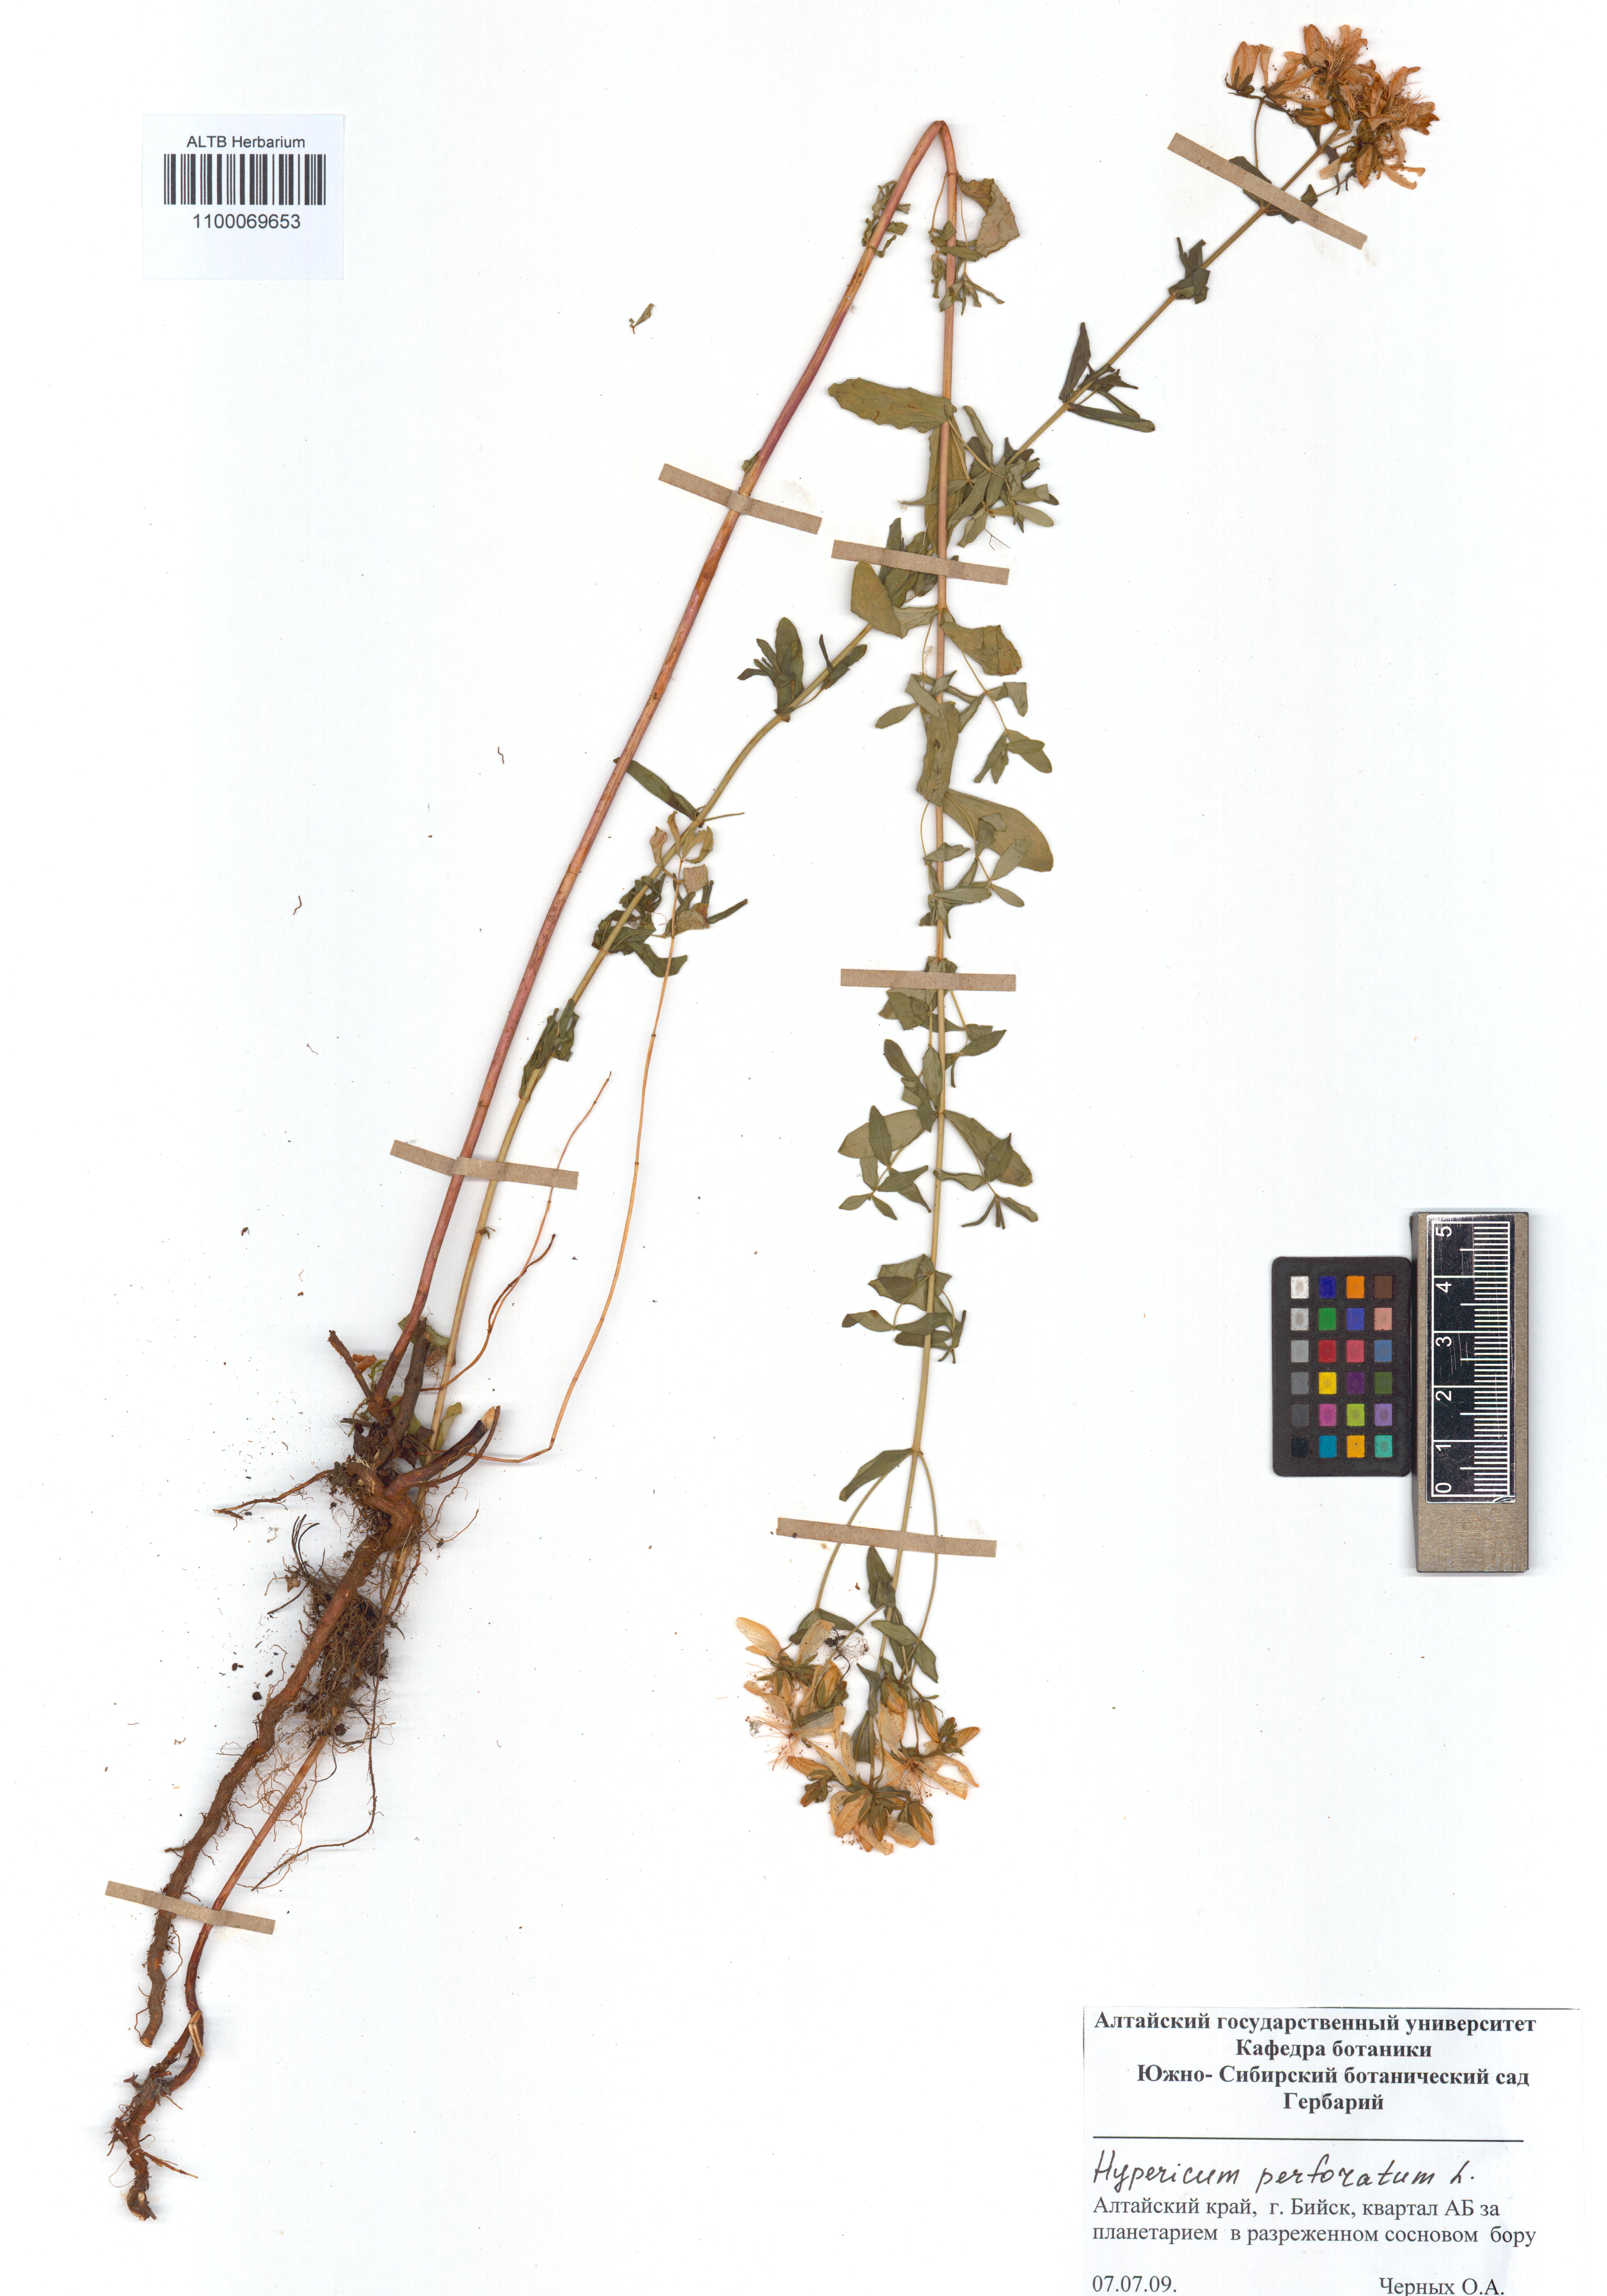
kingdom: Plantae
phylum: Tracheophyta
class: Magnoliopsida
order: Malpighiales
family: Hypericaceae
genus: Hypericum
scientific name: Hypericum perforatum
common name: Common st. johnswort
